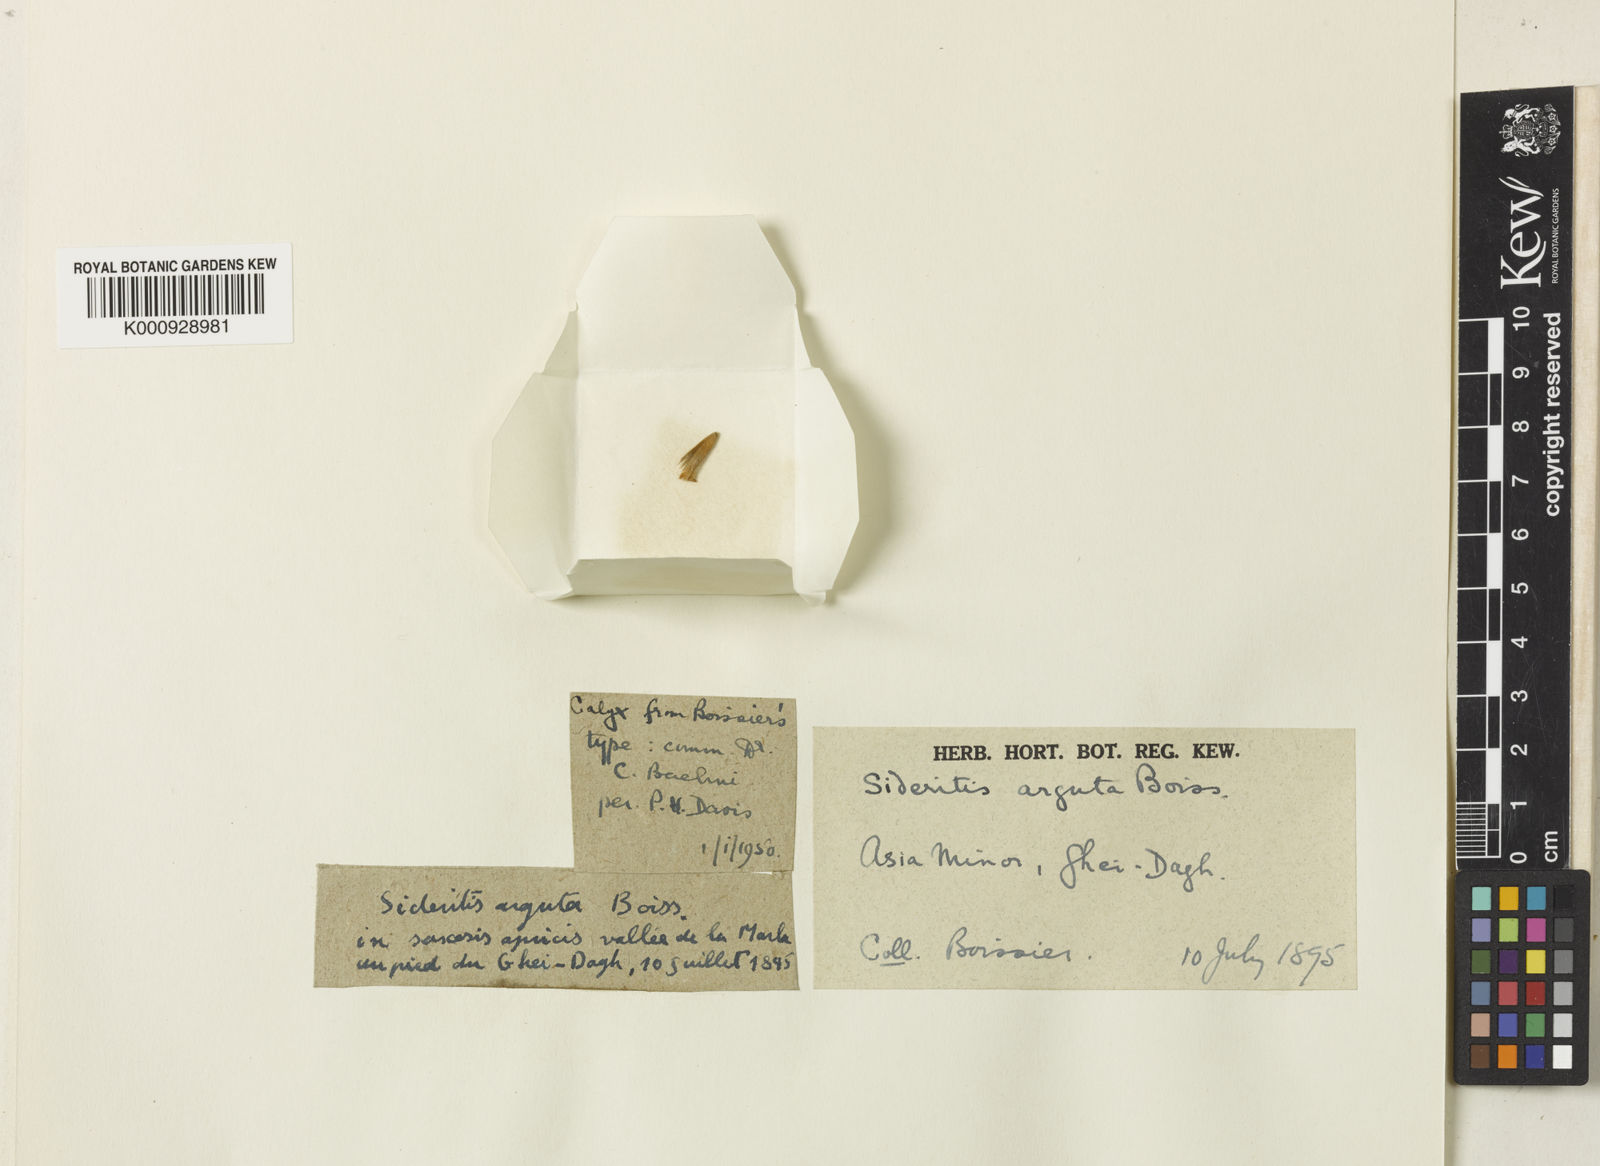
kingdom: Plantae
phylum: Tracheophyta
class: Magnoliopsida
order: Lamiales
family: Lamiaceae
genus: Sideritis
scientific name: Sideritis libanotica
